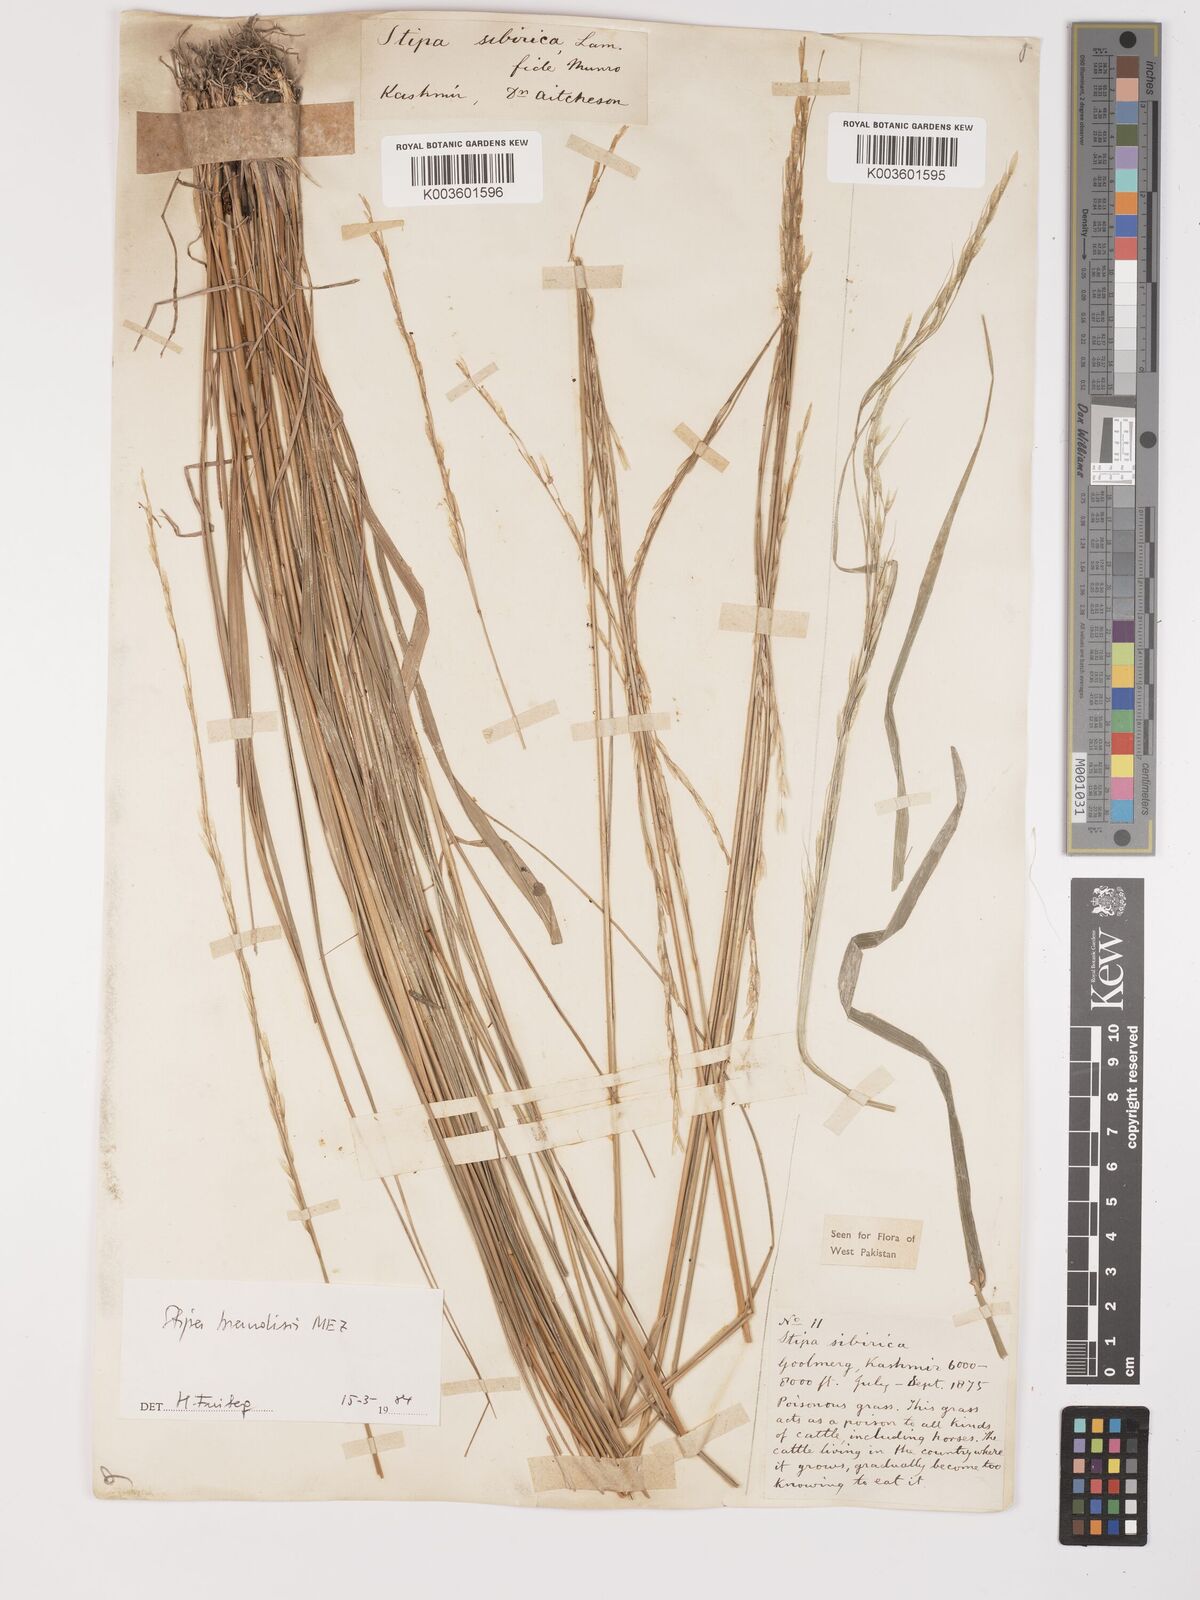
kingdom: Plantae
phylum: Tracheophyta
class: Liliopsida
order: Poales
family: Poaceae
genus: Achnatherum
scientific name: Achnatherum brandisii
